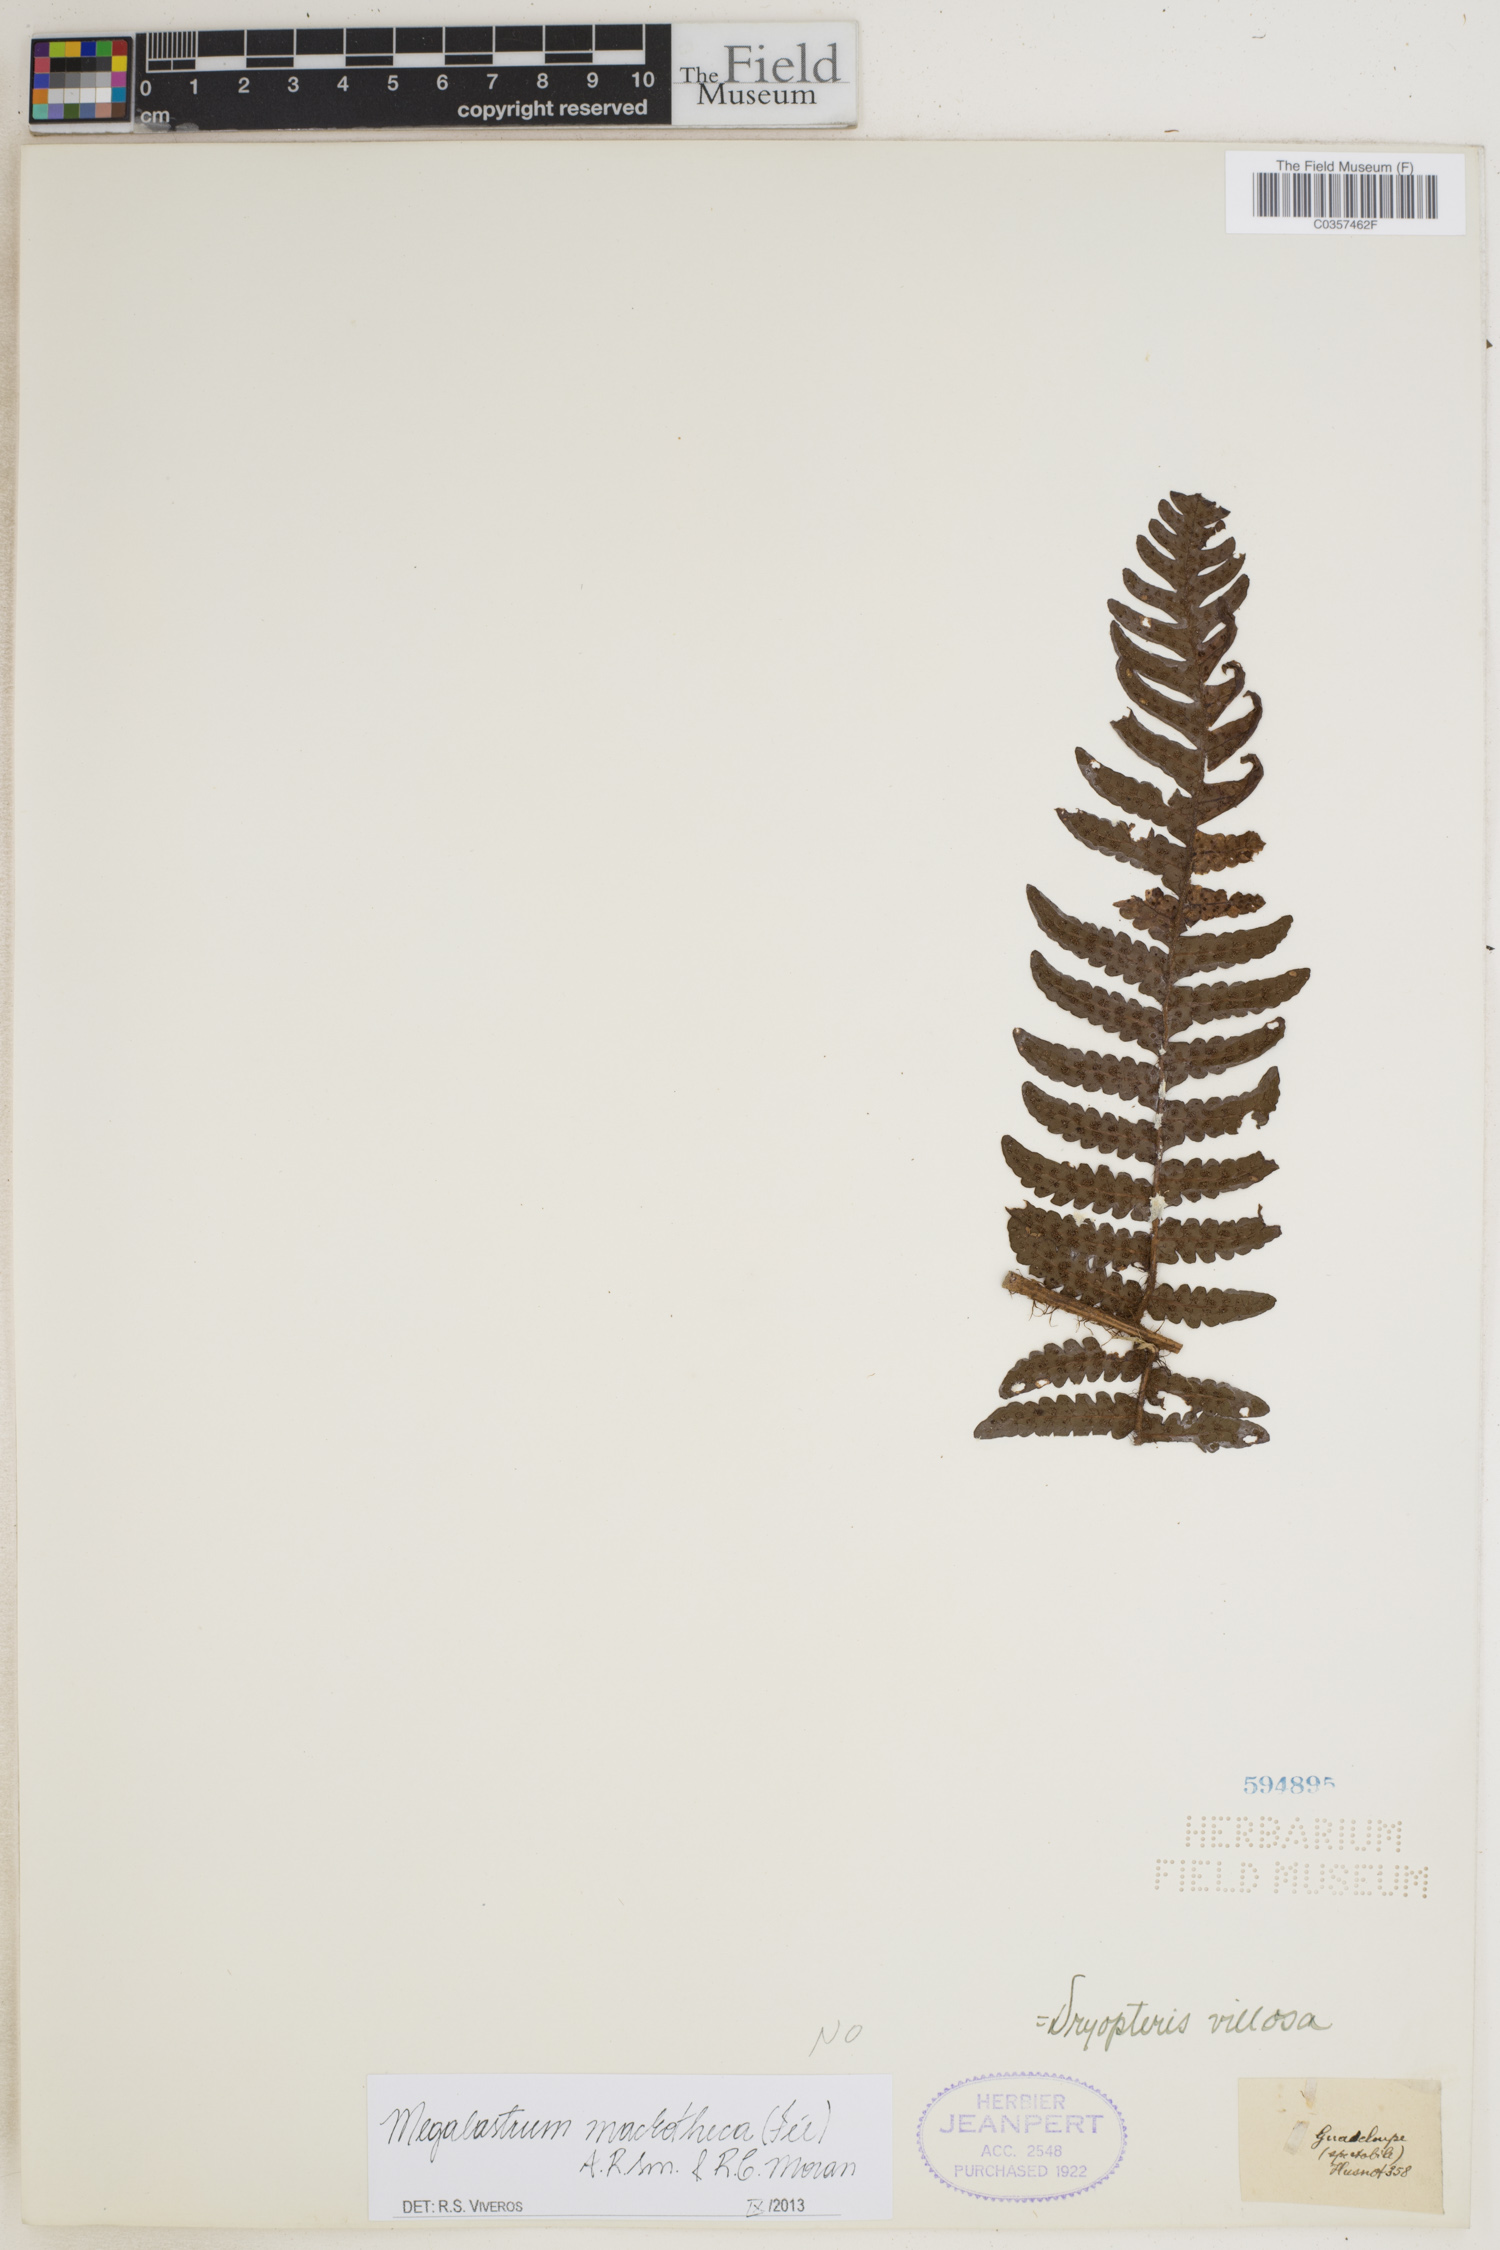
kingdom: Plantae
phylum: Tracheophyta
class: Polypodiopsida
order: Polypodiales
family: Dryopteridaceae
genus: Megalastrum
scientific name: Megalastrum macrothecum
